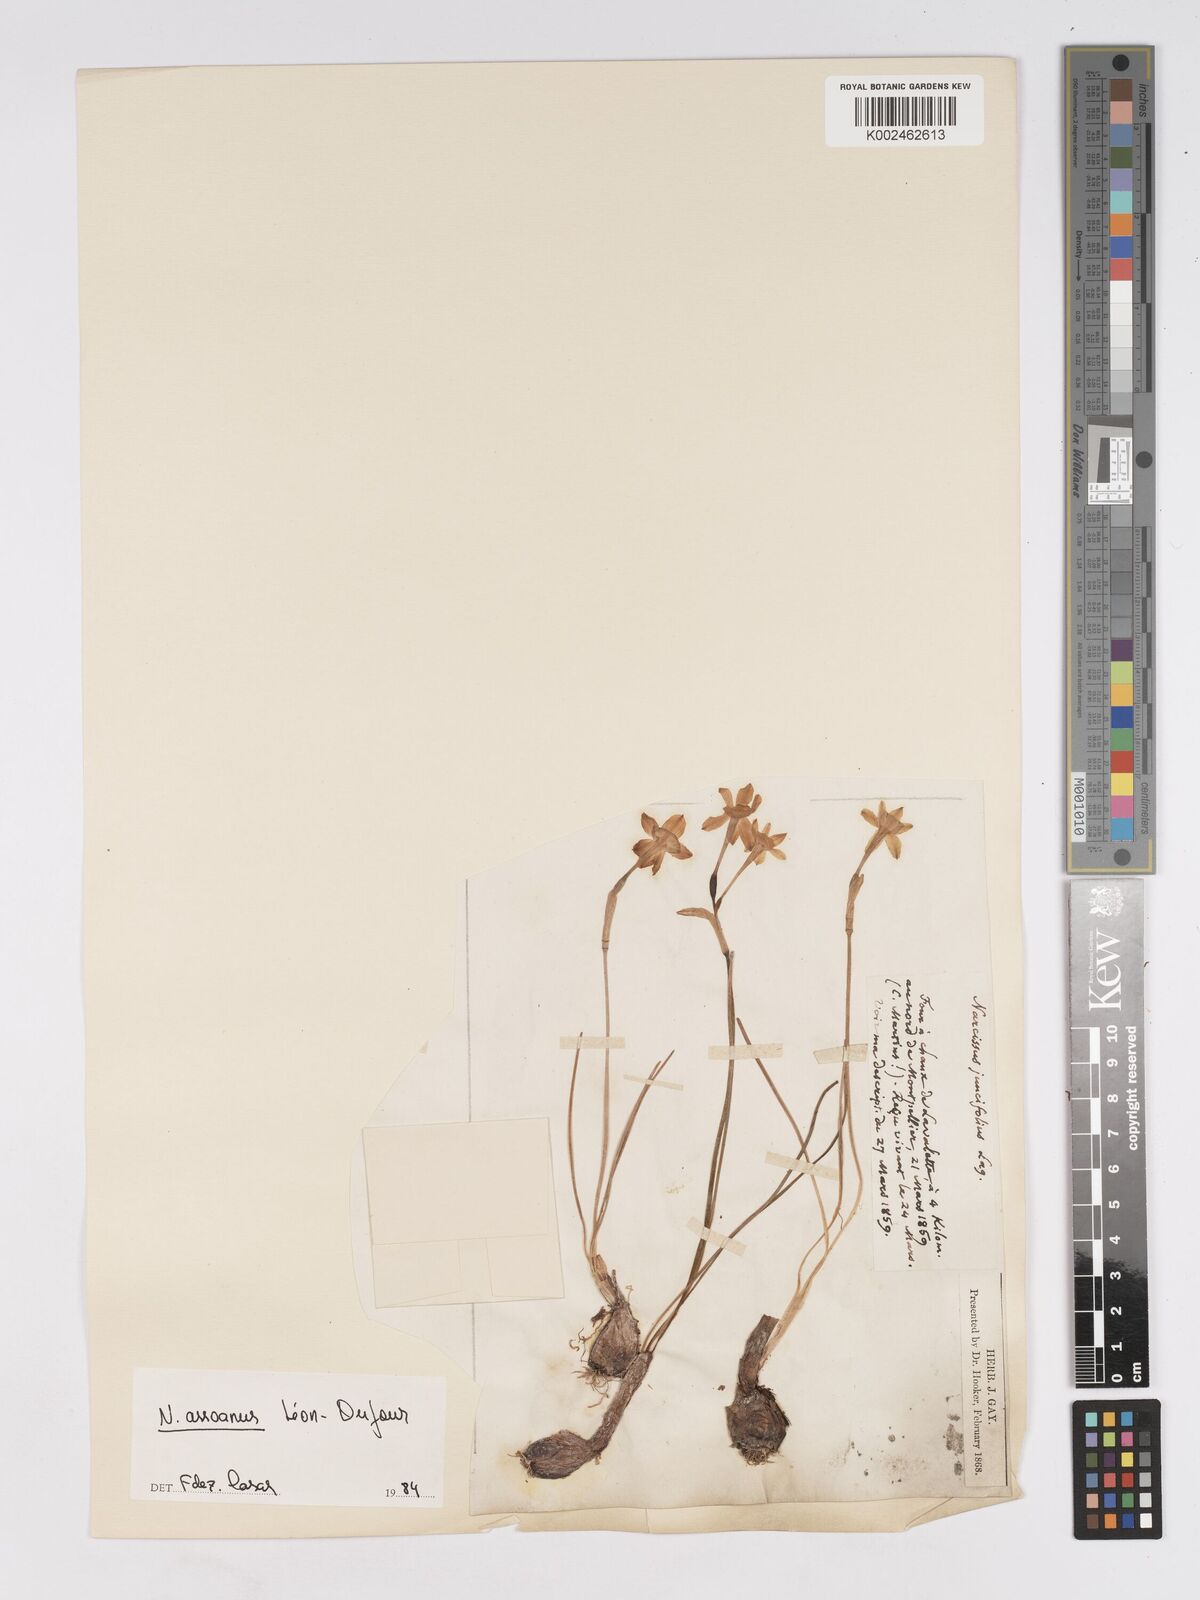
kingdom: Plantae
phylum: Tracheophyta
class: Liliopsida
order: Asparagales
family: Amaryllidaceae
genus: Narcissus
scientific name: Narcissus assoanus
